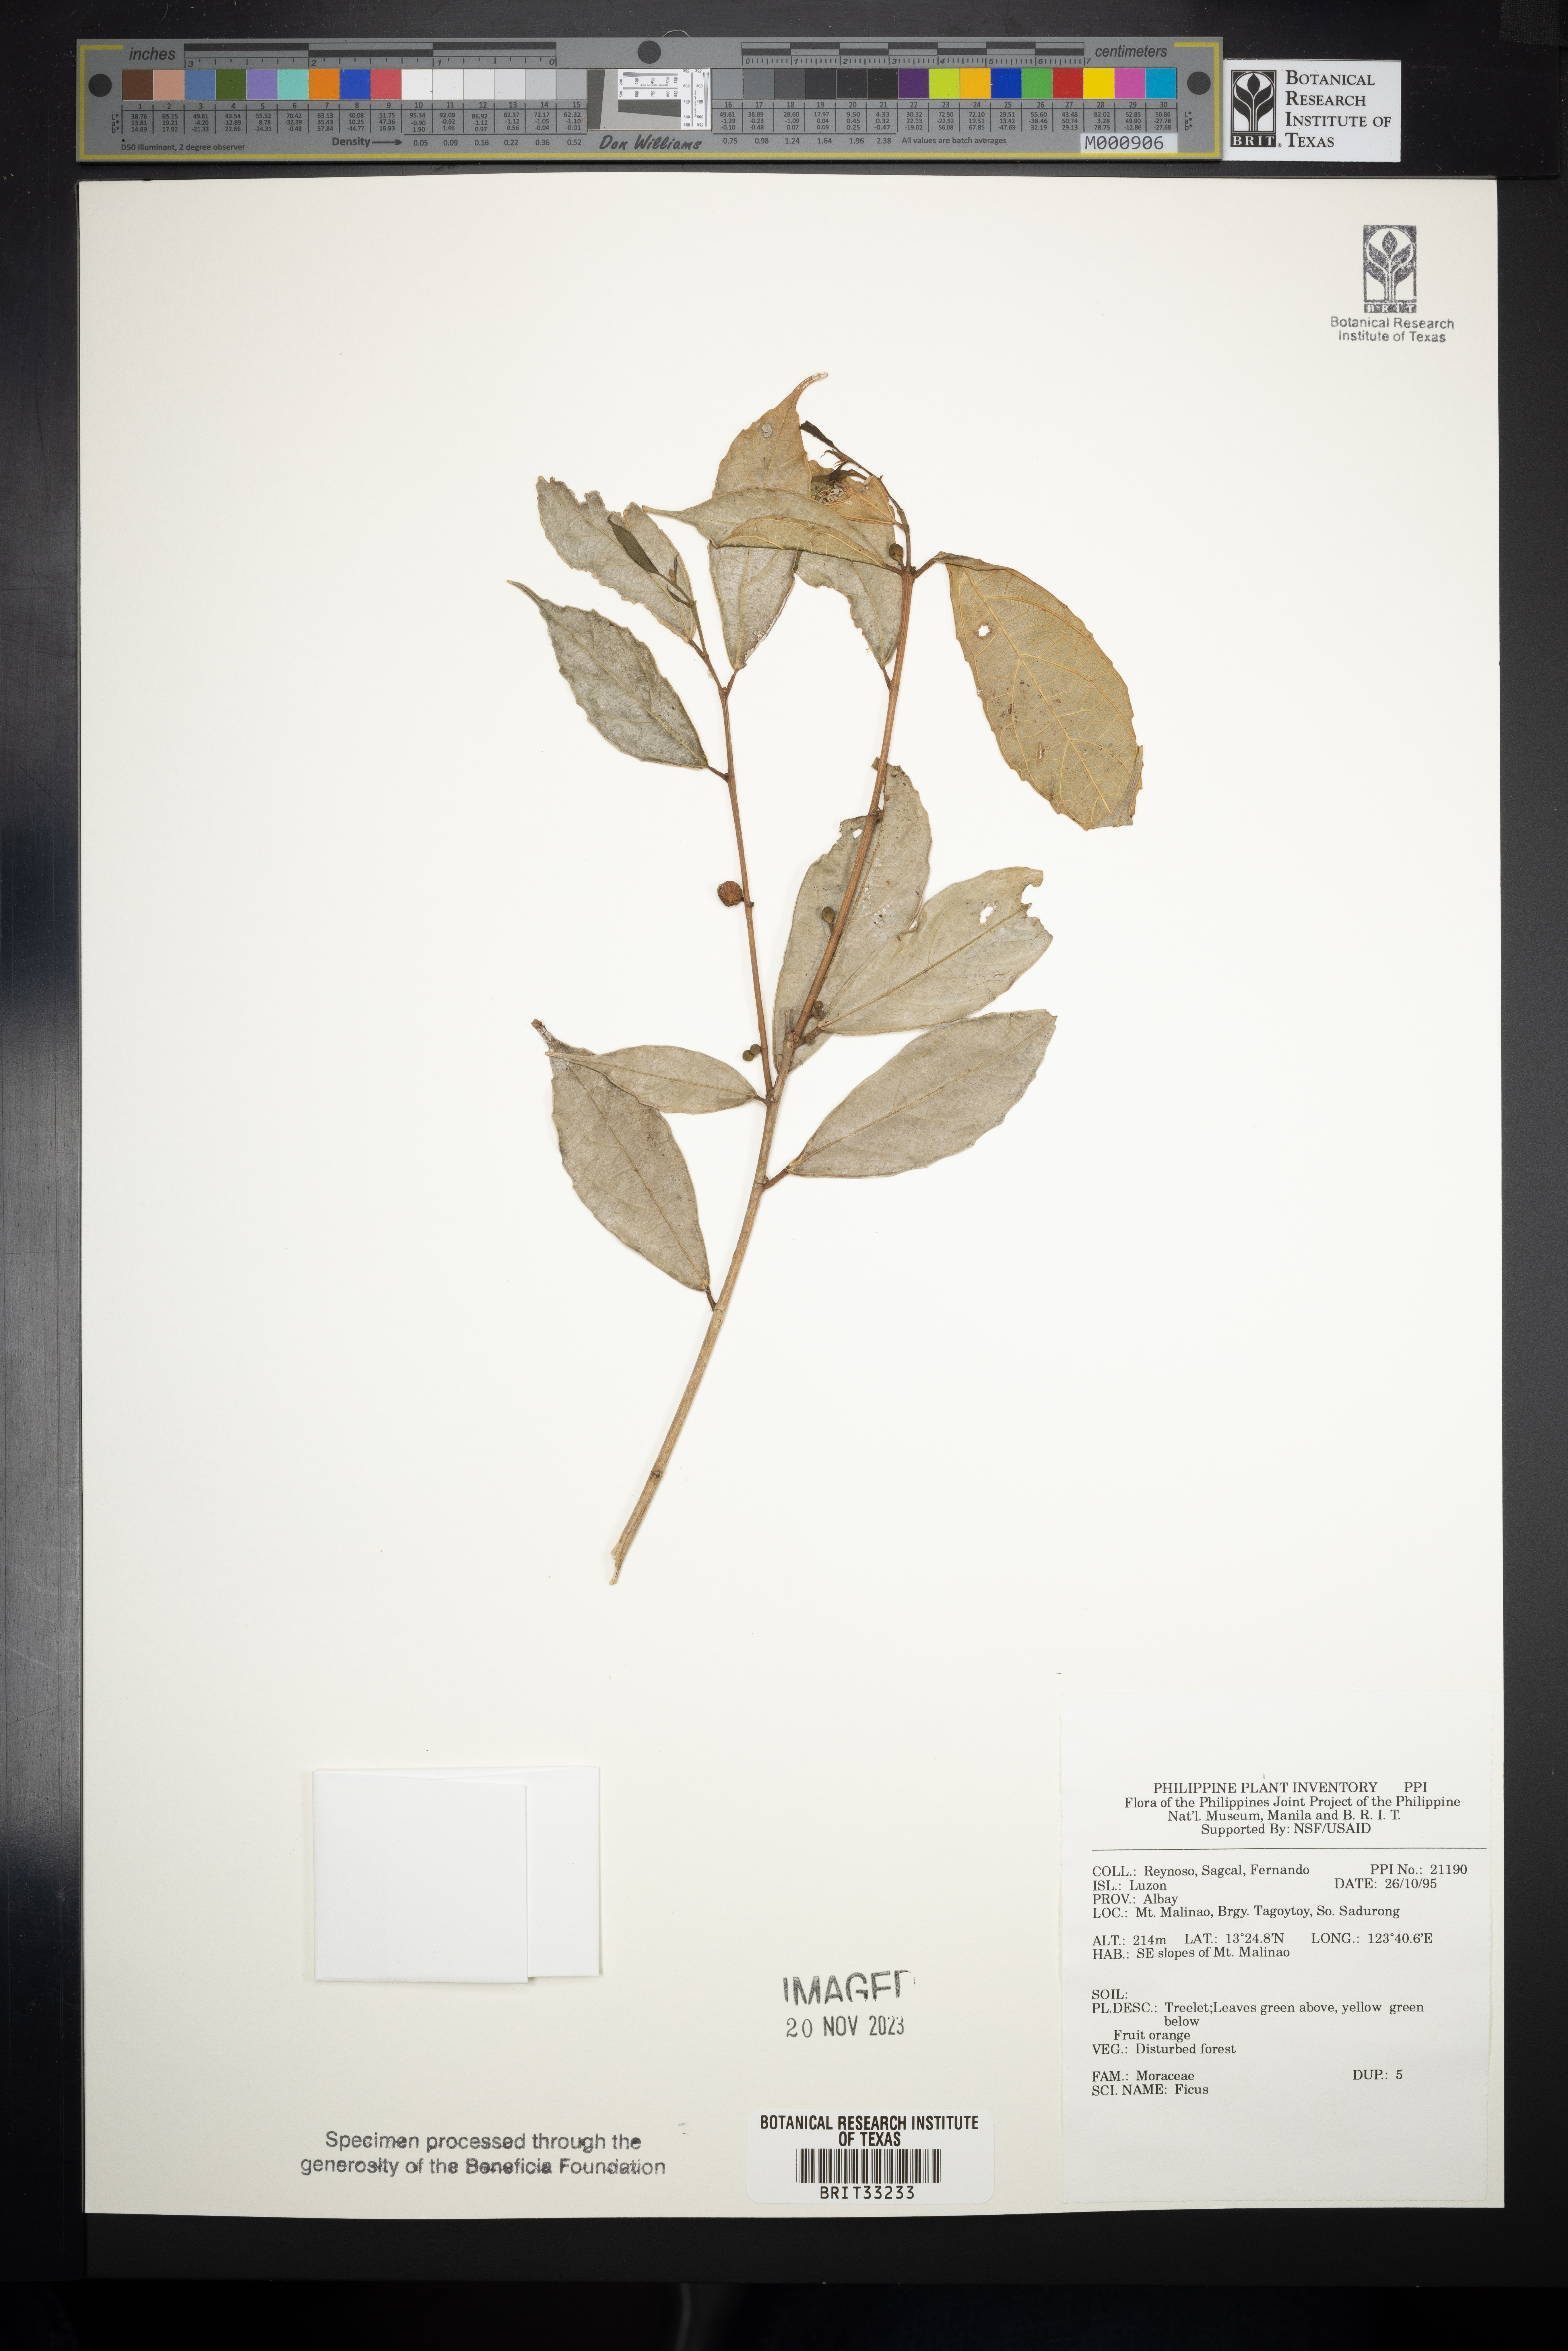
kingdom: Plantae
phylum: Tracheophyta
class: Magnoliopsida
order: Rosales
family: Moraceae
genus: Ficus
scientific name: Ficus
